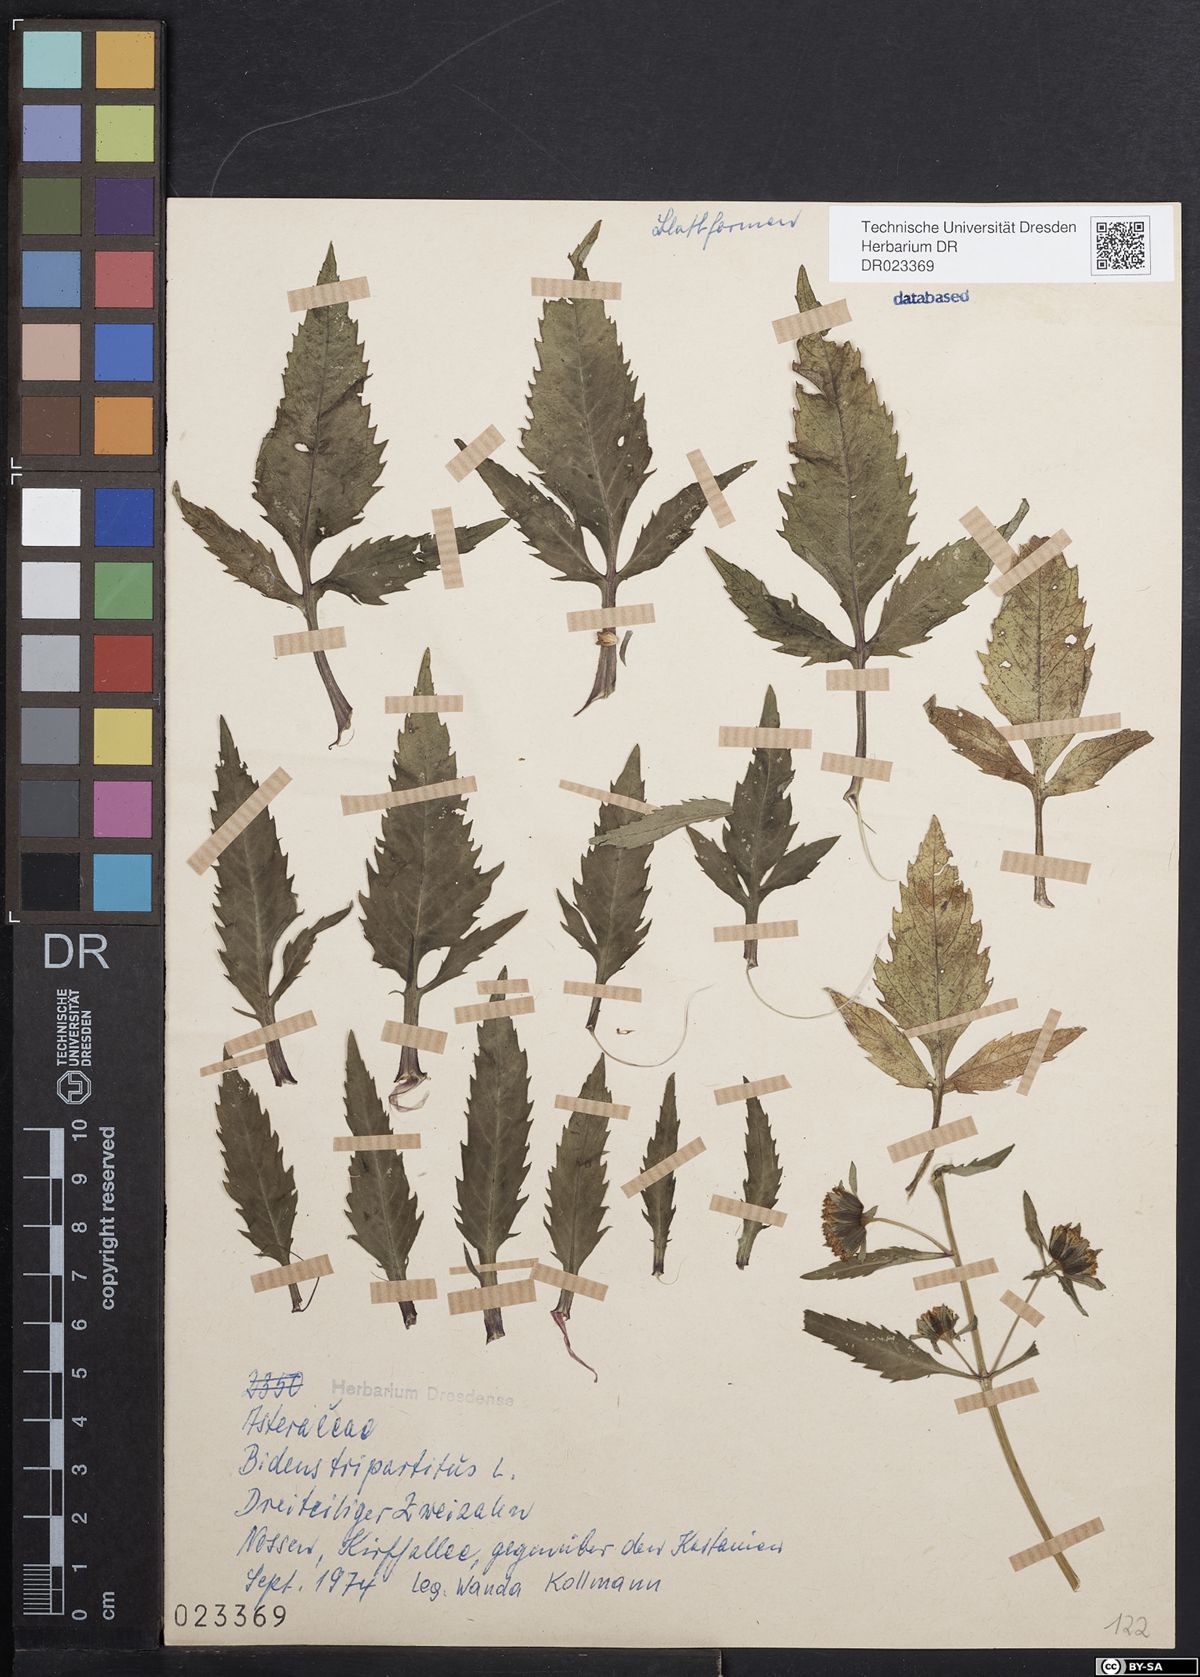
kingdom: Plantae
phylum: Tracheophyta
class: Magnoliopsida
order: Asterales
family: Asteraceae
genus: Bidens
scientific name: Bidens tripartita
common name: Trifid bur-marigold
